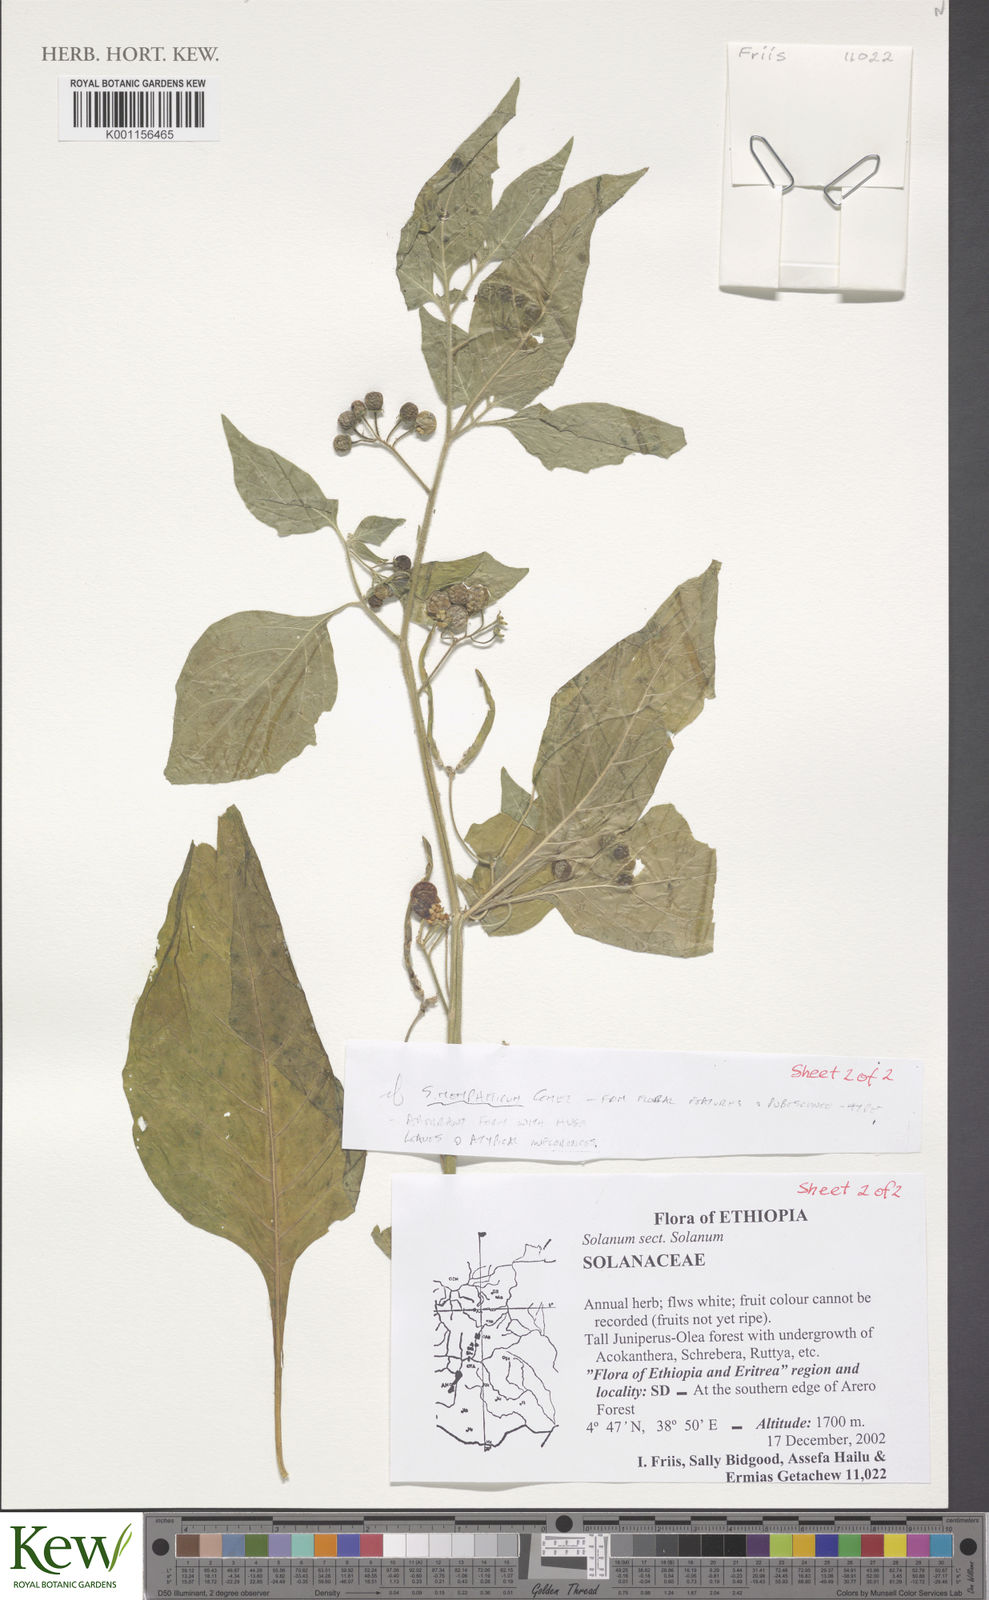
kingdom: Plantae
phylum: Tracheophyta
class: Magnoliopsida
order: Solanales
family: Solanaceae
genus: Solanum
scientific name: Solanum tarderemotum
